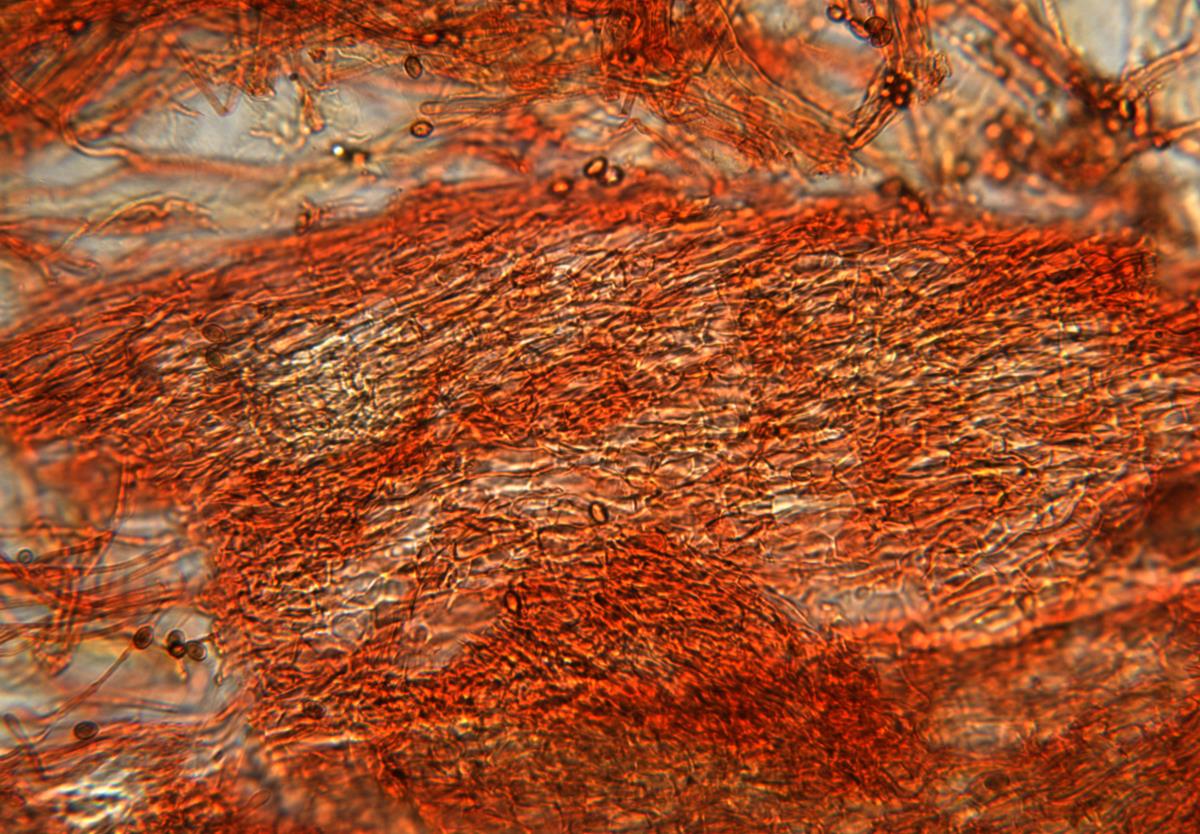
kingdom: Fungi
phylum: Basidiomycota
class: Agaricomycetes
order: Agaricales
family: Cortinariaceae
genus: Cortinarius
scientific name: Cortinarius
